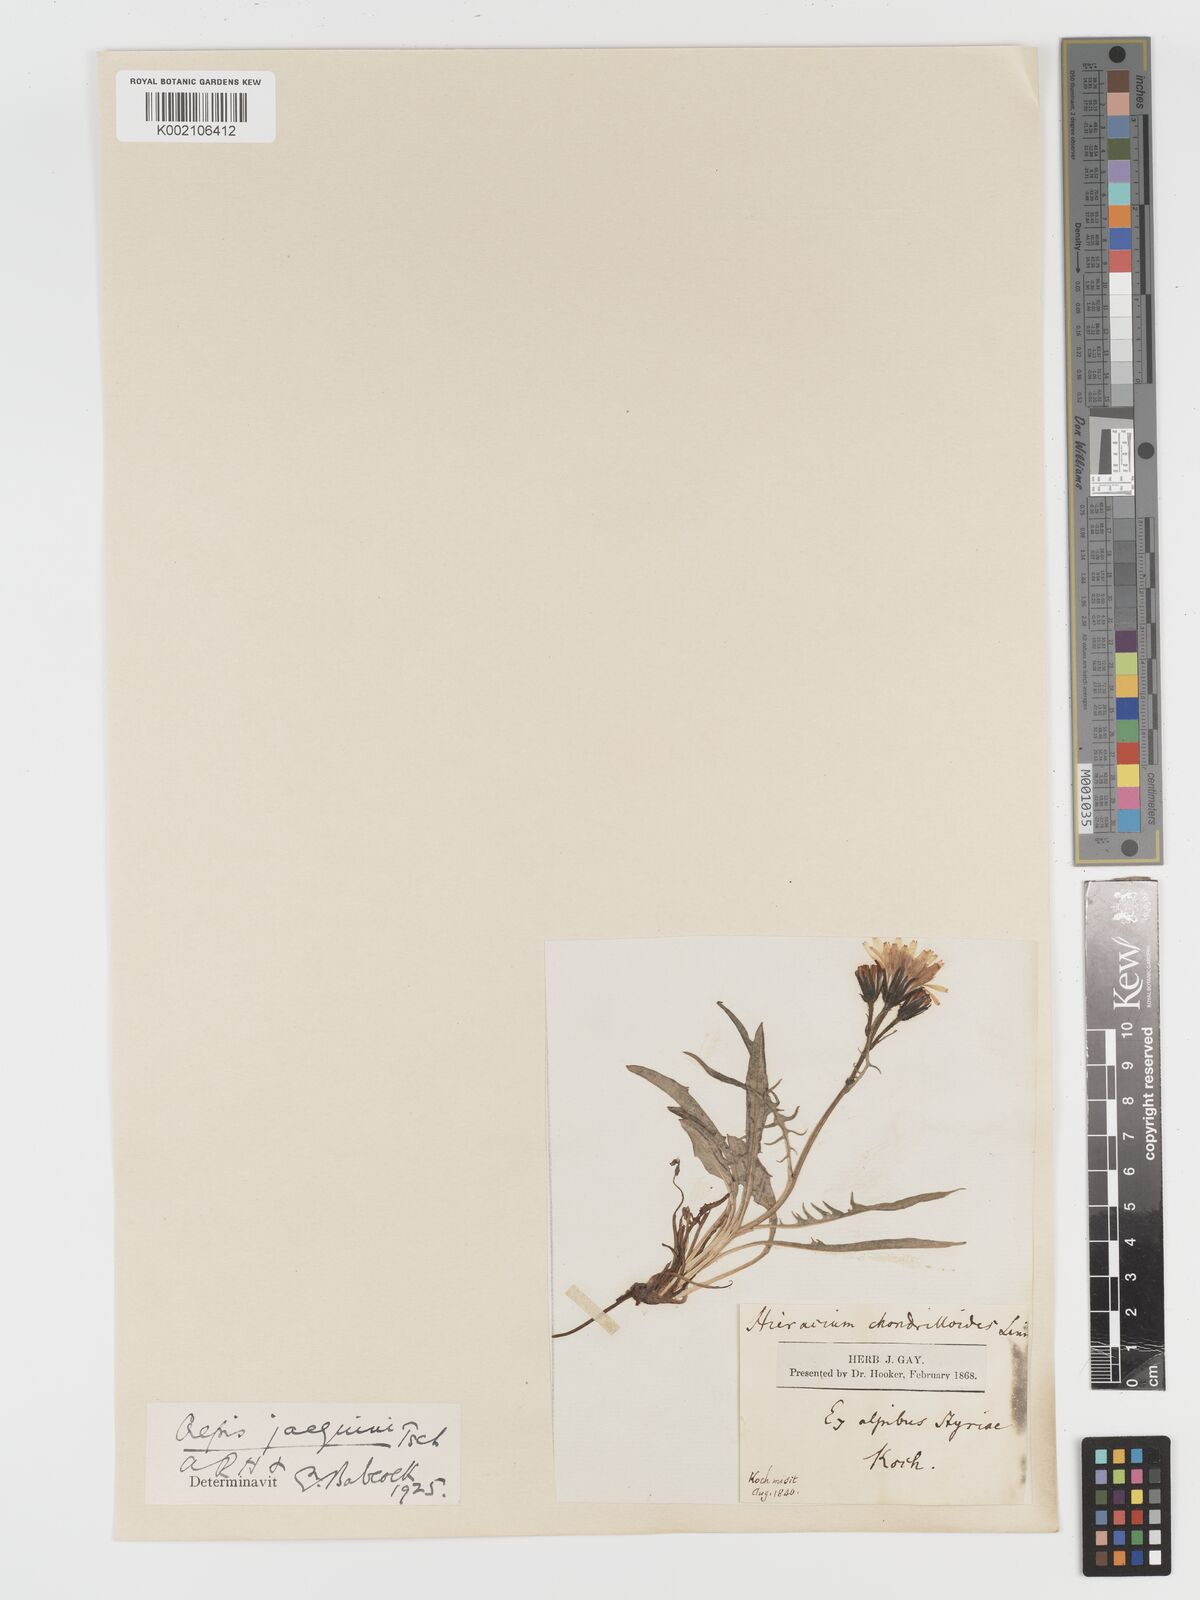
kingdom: Plantae
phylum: Tracheophyta
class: Magnoliopsida
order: Asterales
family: Asteraceae
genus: Crepis
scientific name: Crepis jacquinii
